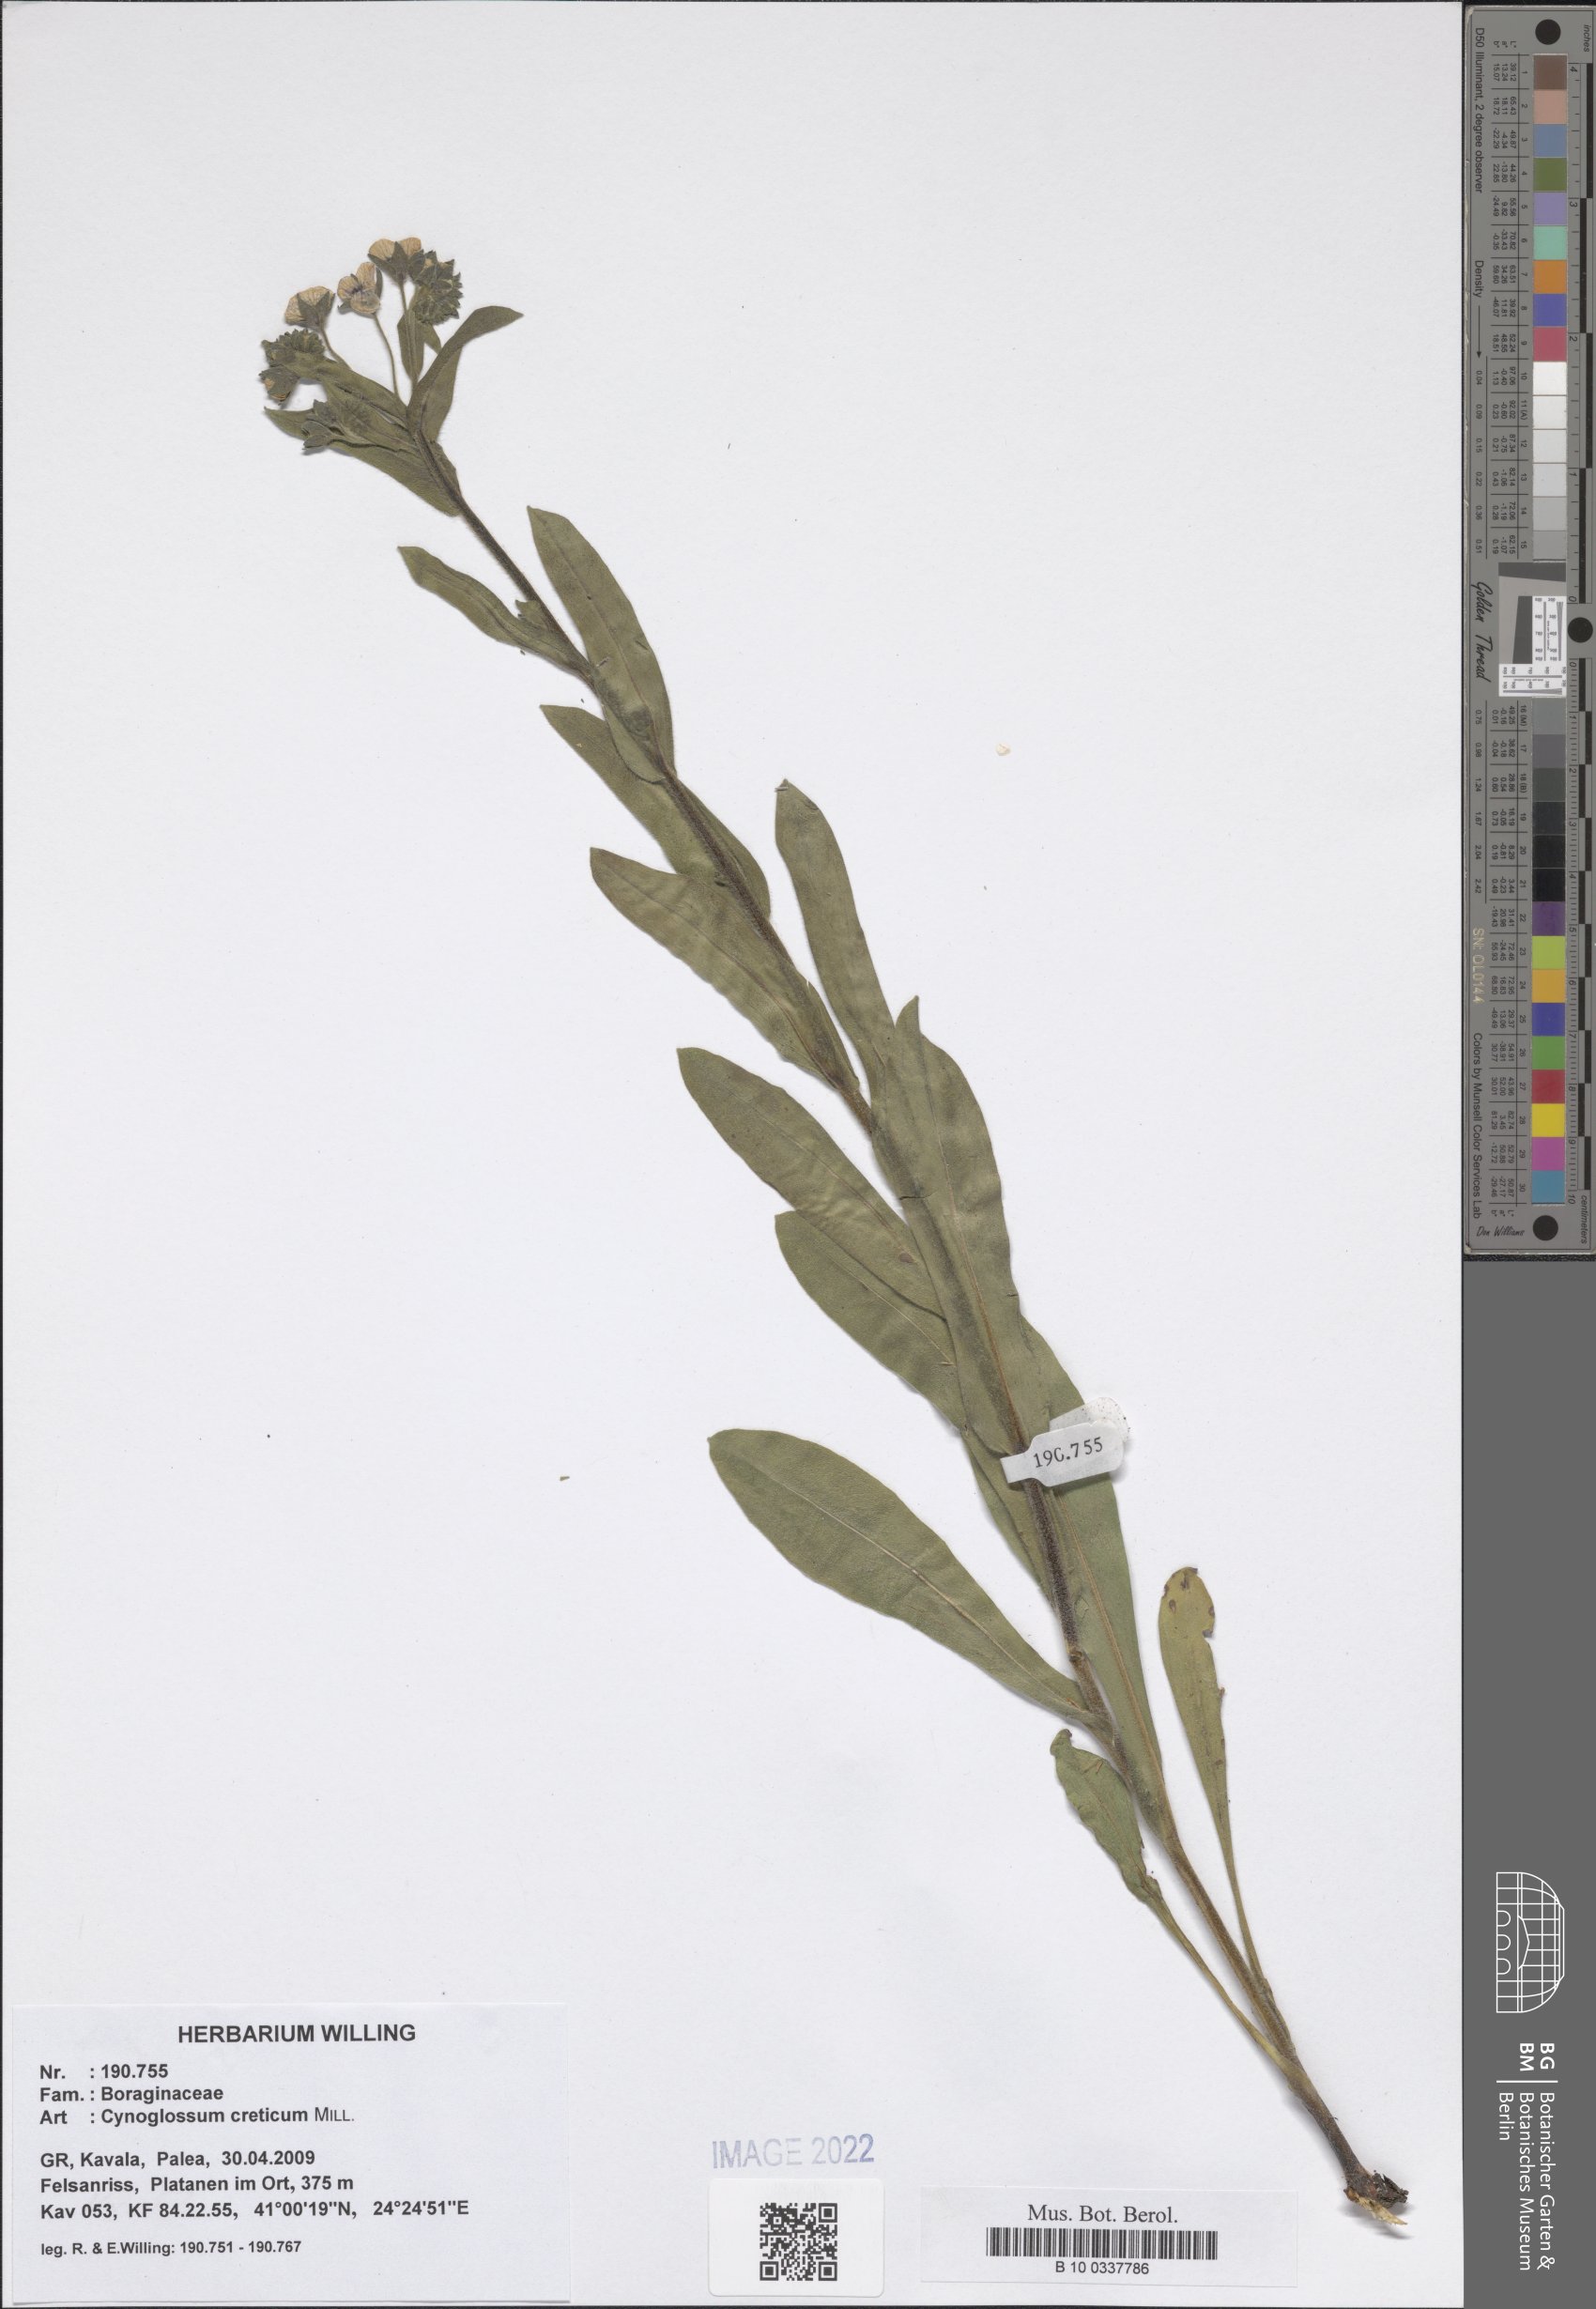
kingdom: Plantae
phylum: Tracheophyta
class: Magnoliopsida
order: Boraginales
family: Boraginaceae
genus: Cynoglossum
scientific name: Cynoglossum creticum
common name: Blue hound's tongue
